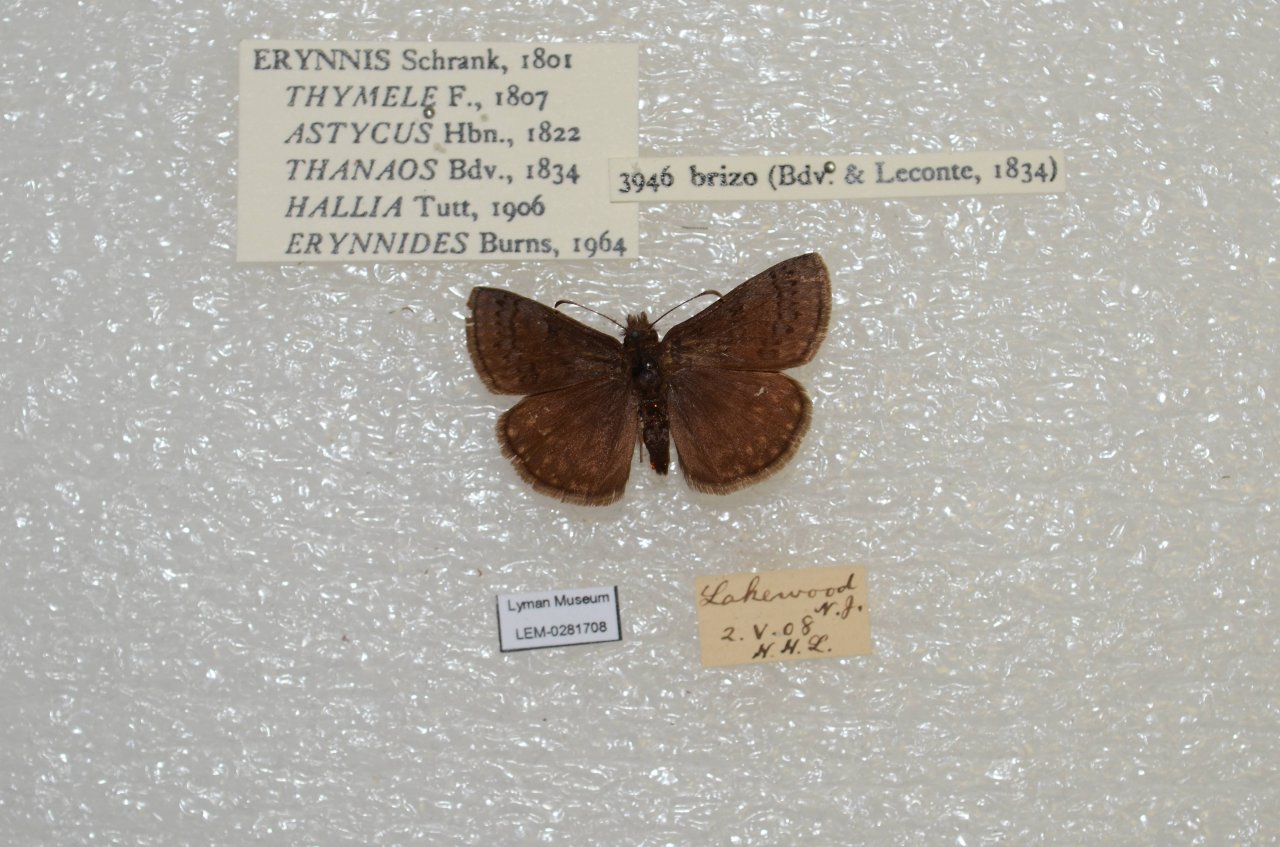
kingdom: Animalia
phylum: Arthropoda
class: Insecta
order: Lepidoptera
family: Hesperiidae
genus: Erynnis
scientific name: Erynnis brizo
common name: Sleepy Duskywing
